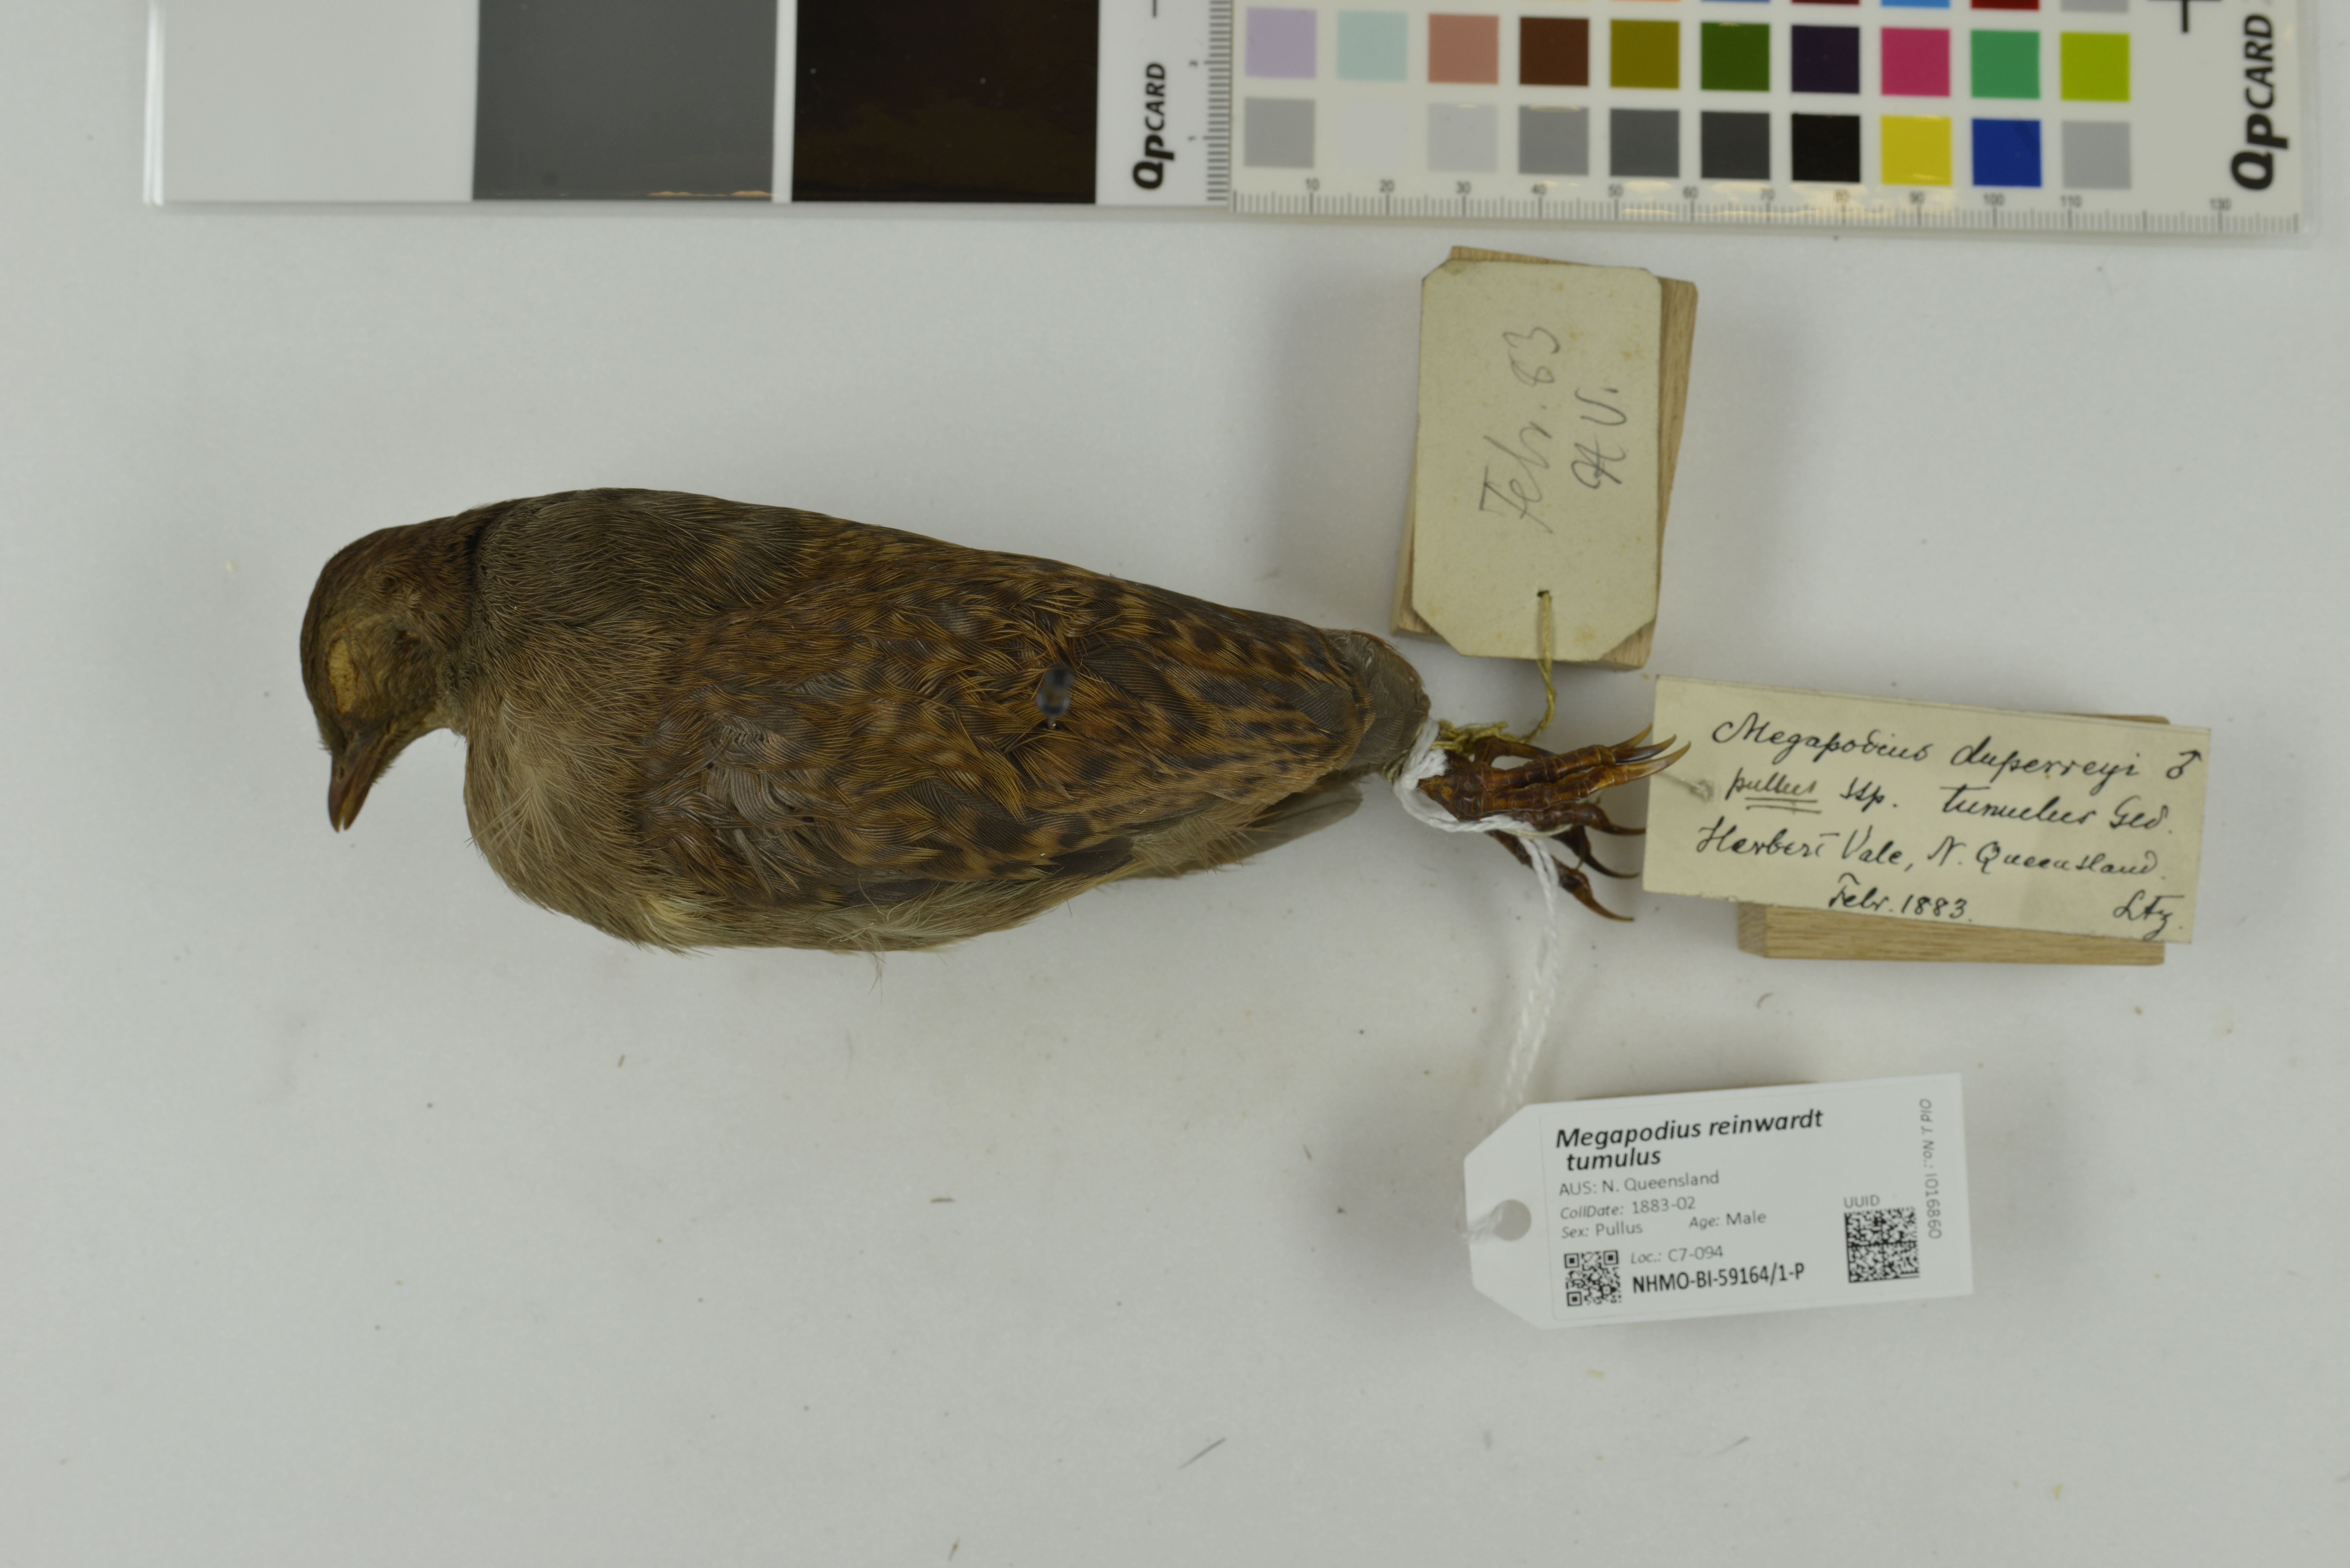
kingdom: Animalia
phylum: Chordata
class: Aves
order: Galliformes
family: Megapodiidae
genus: Megapodius
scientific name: Megapodius reinwardt
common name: Orange-footed scrubfowl
